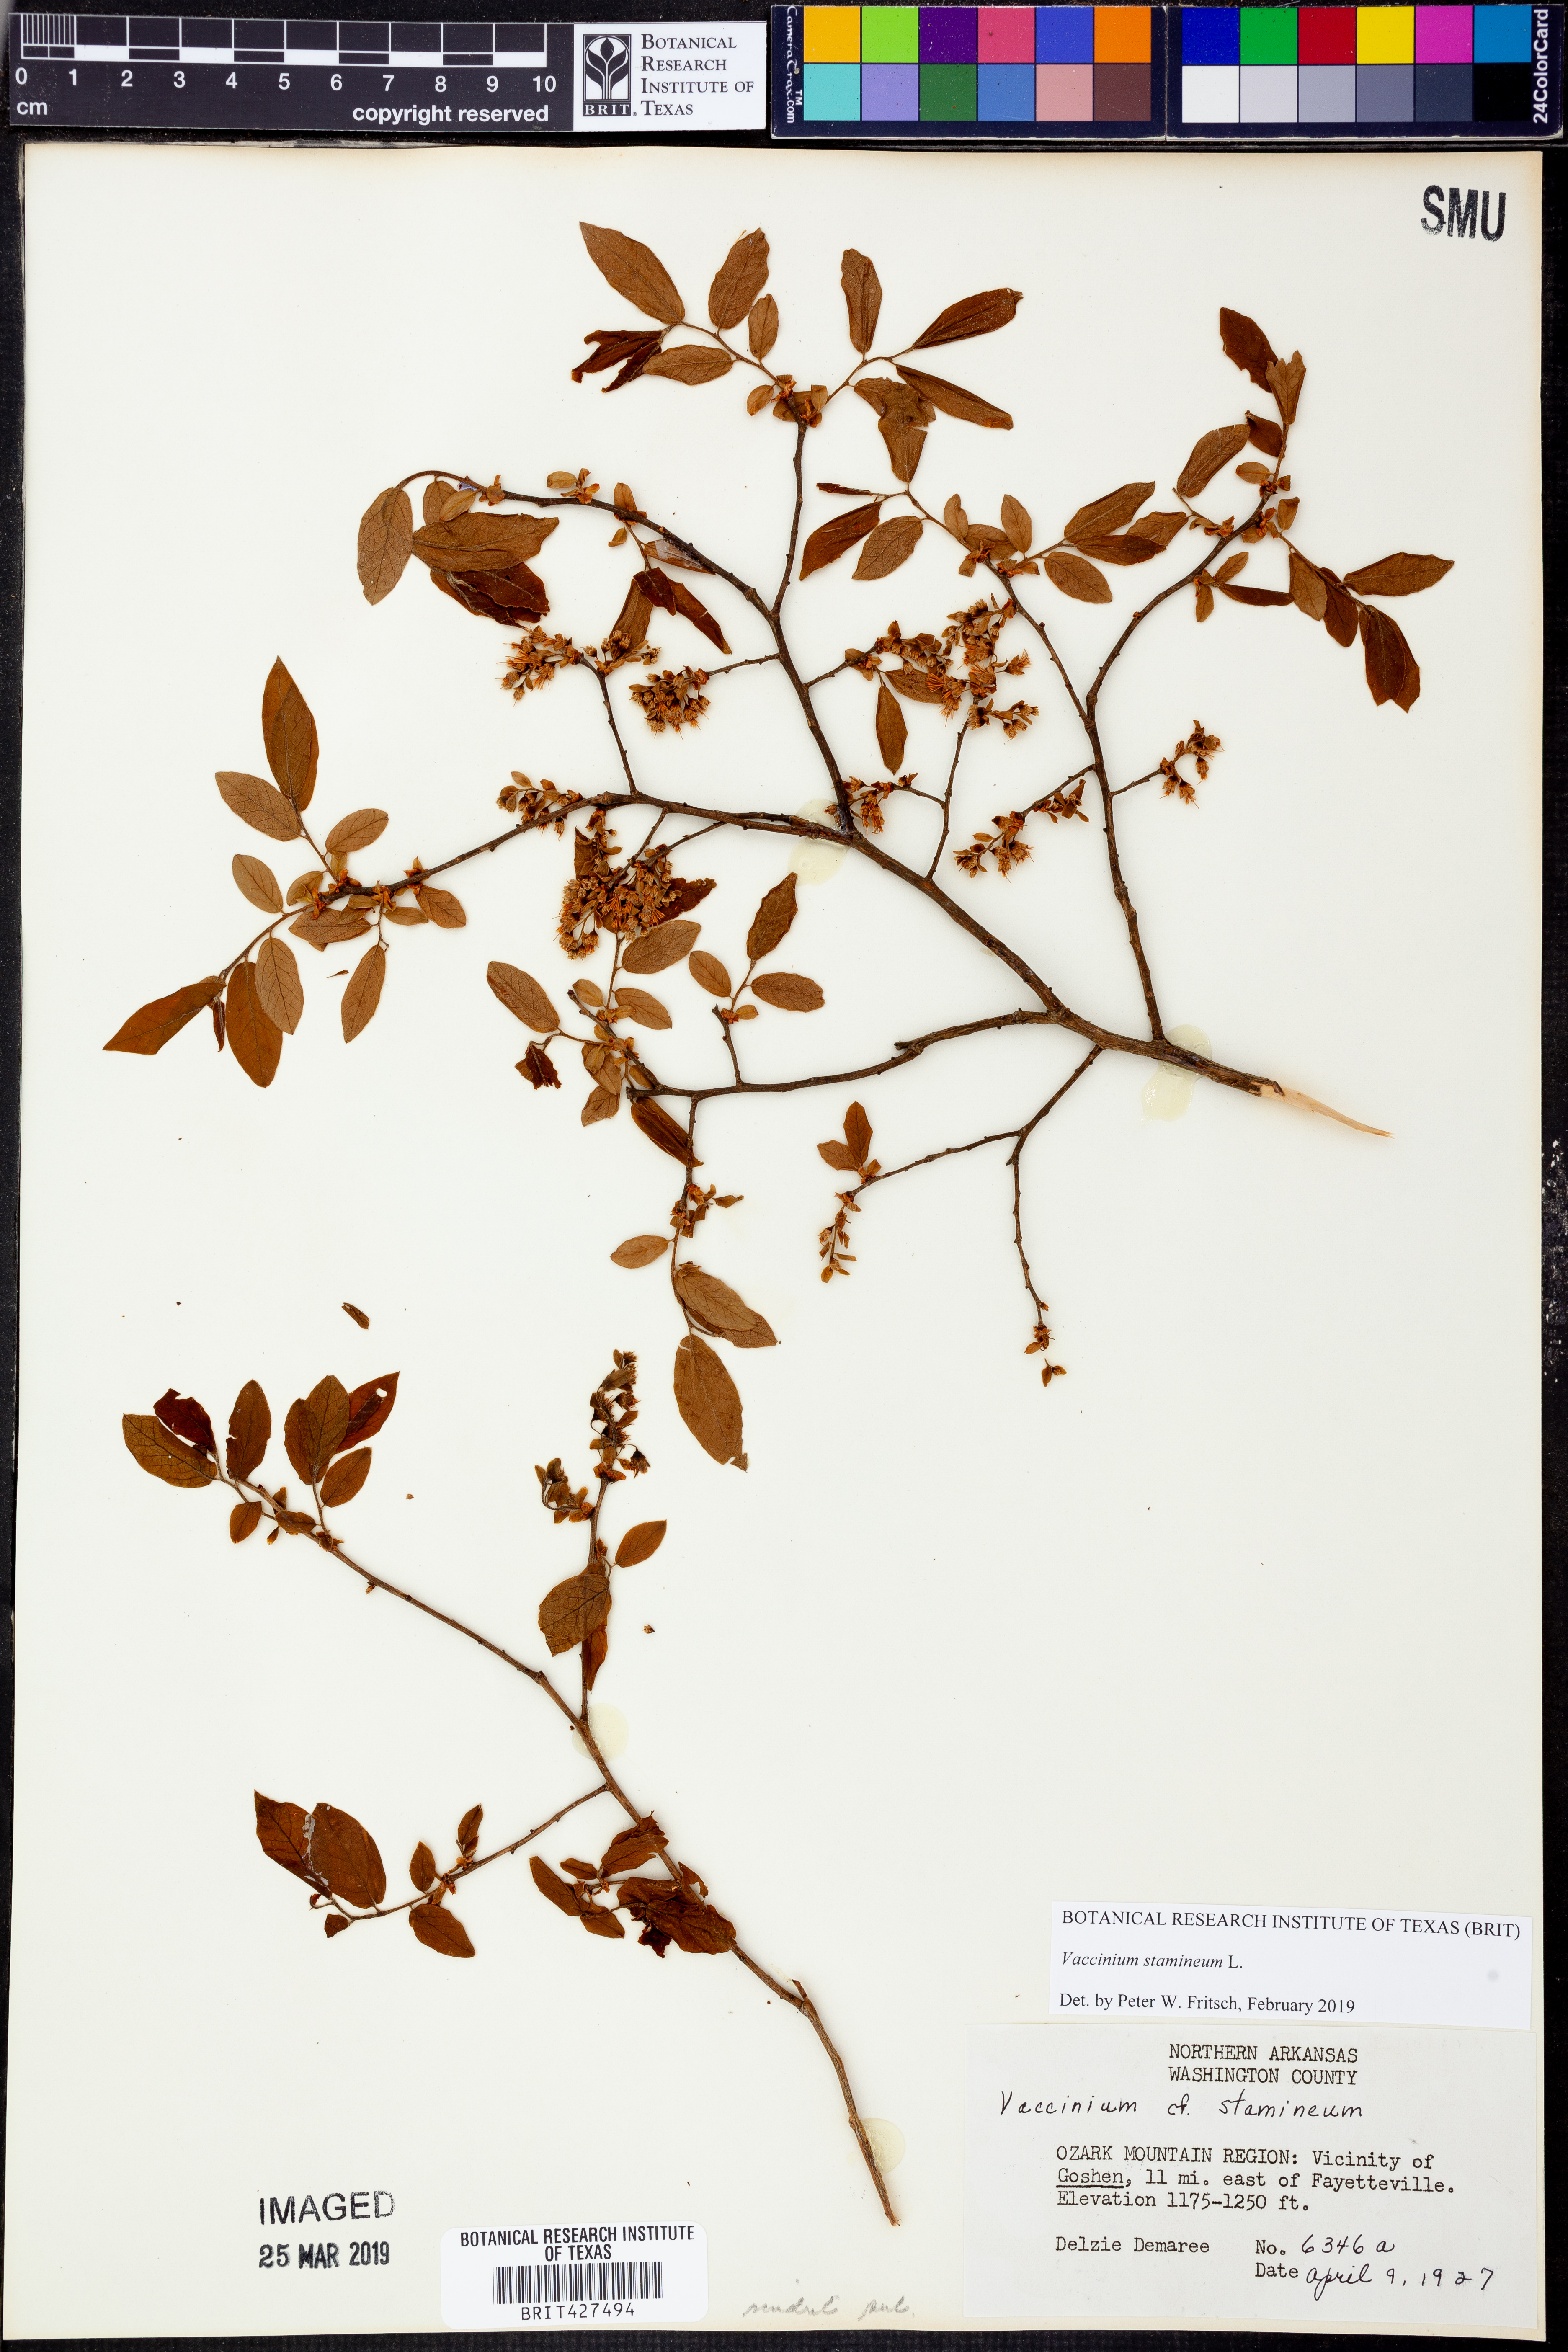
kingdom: Plantae
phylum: Tracheophyta
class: Magnoliopsida
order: Ericales
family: Ericaceae
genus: Vaccinium
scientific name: Vaccinium stamineum
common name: Deerberry
